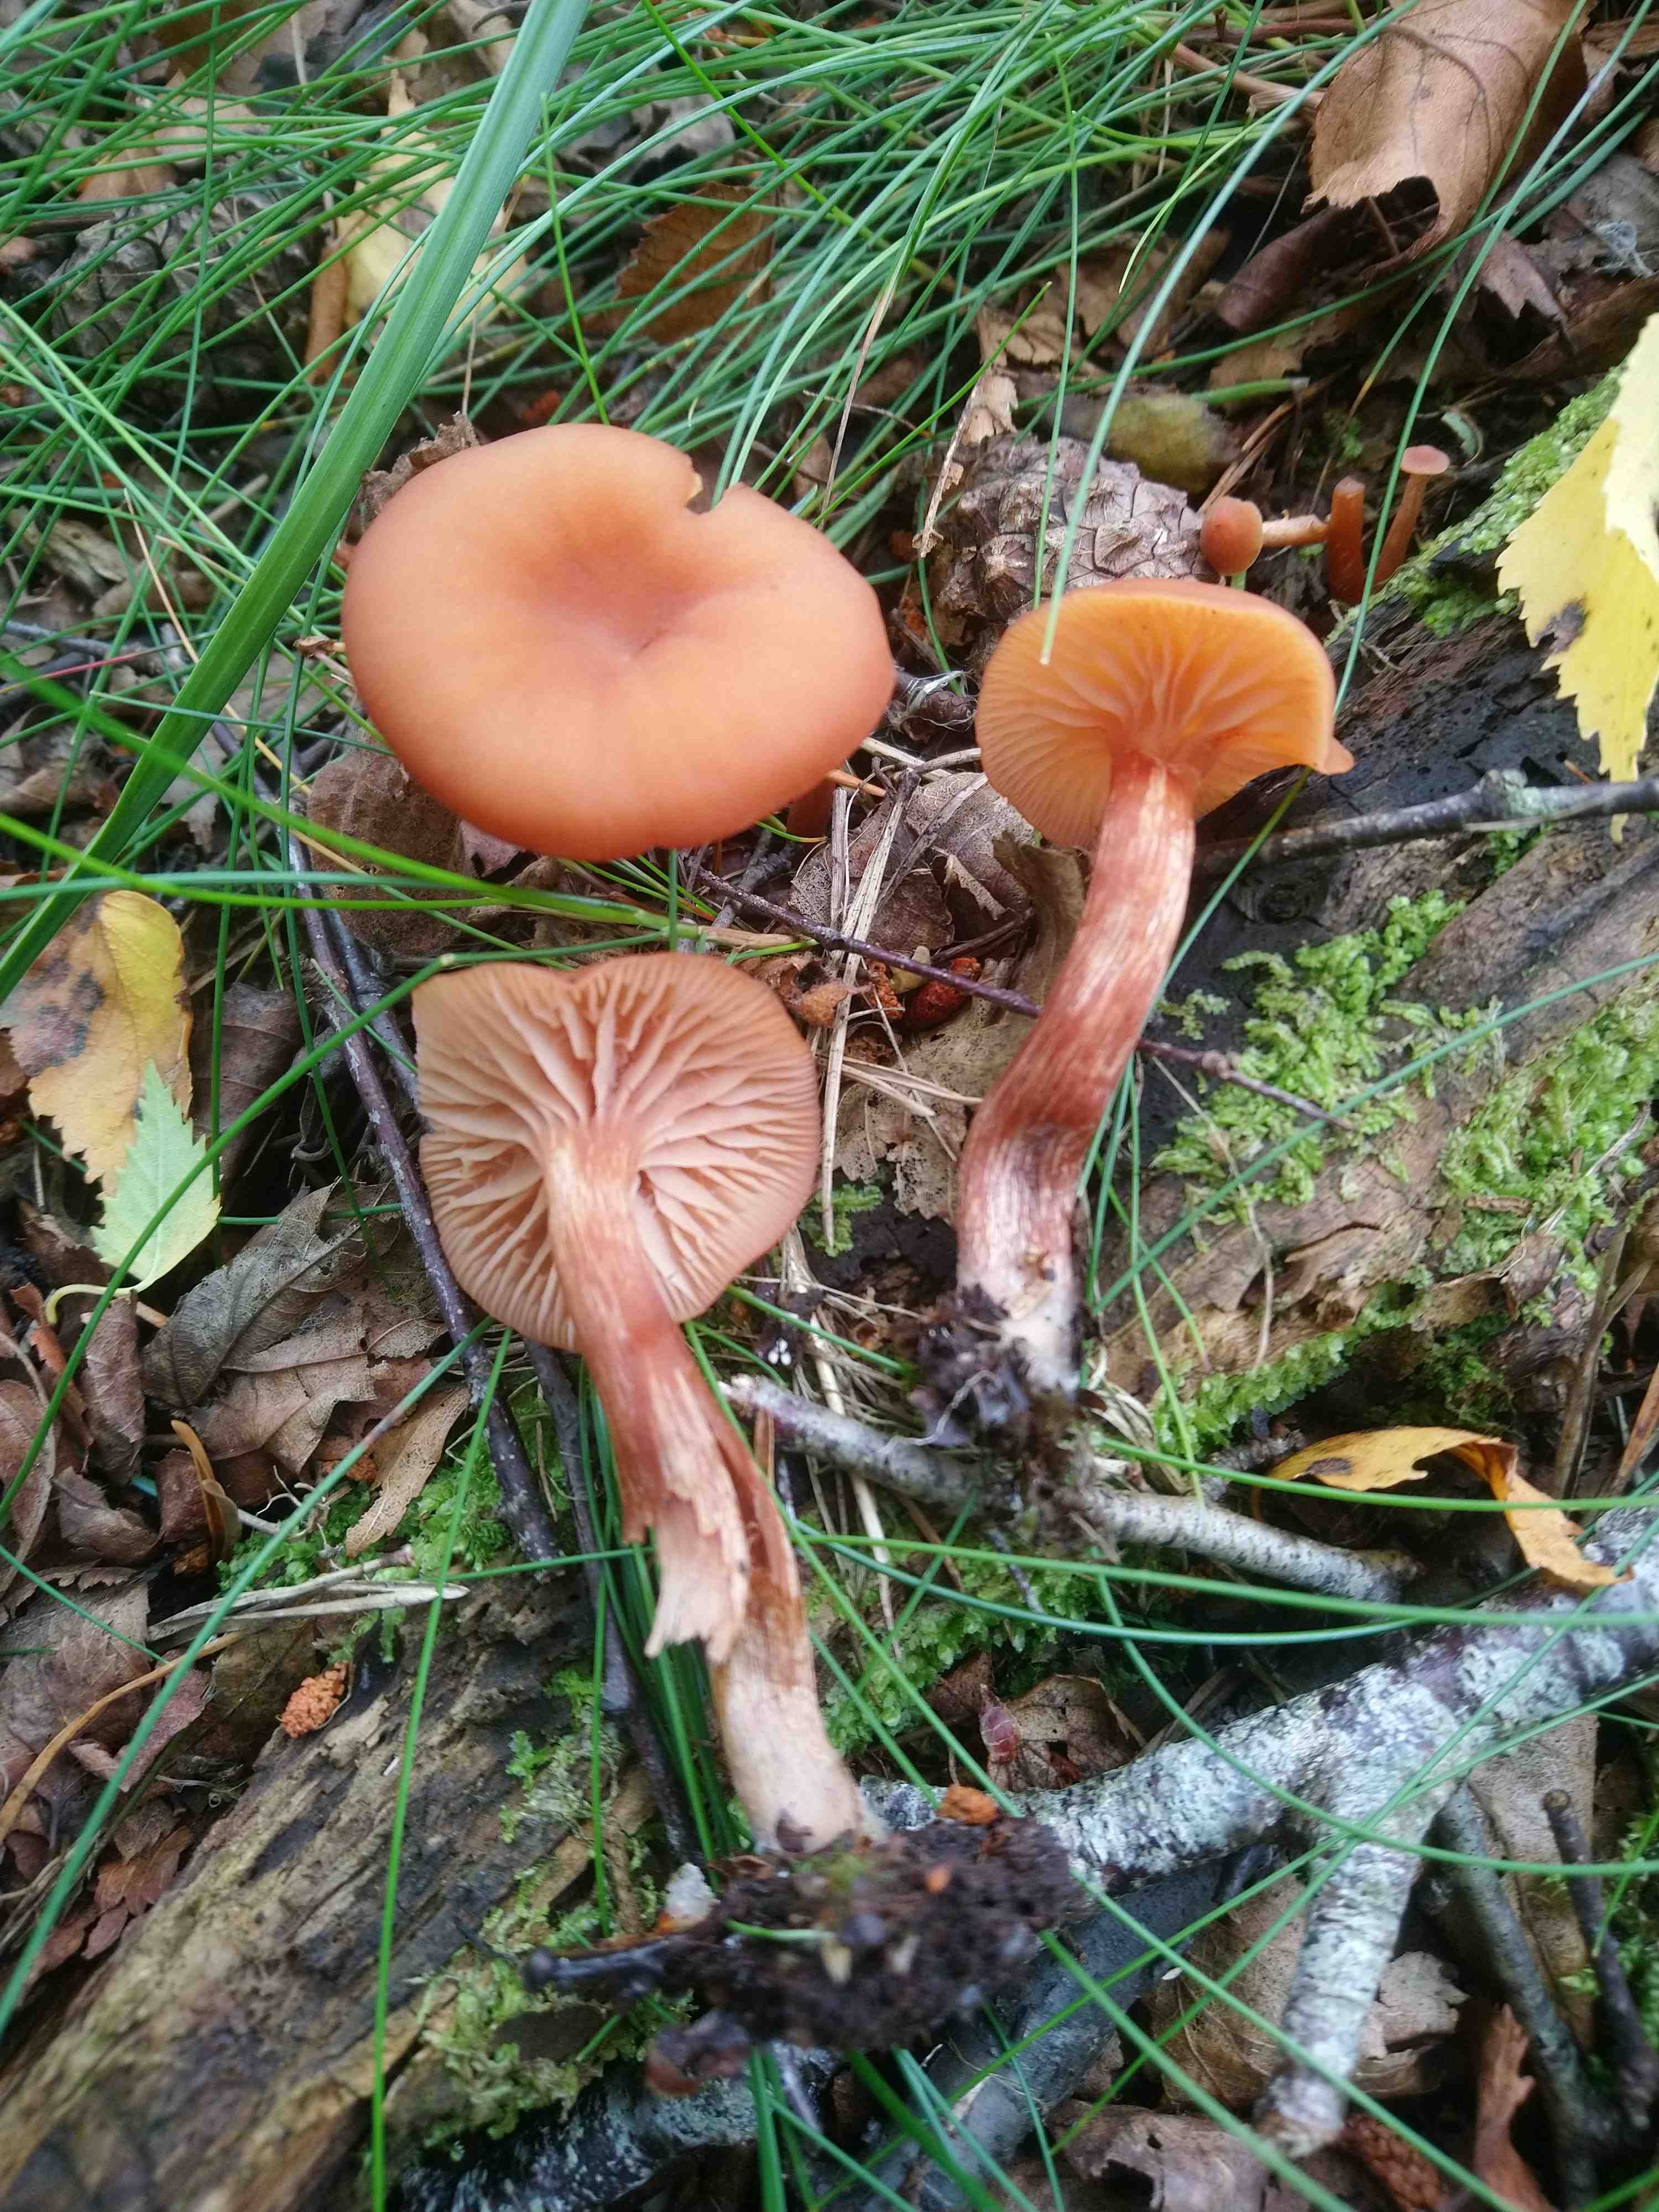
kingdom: Fungi
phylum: Basidiomycota
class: Agaricomycetes
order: Agaricales
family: Hydnangiaceae
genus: Laccaria
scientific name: Laccaria laccata
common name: rød ametysthat
